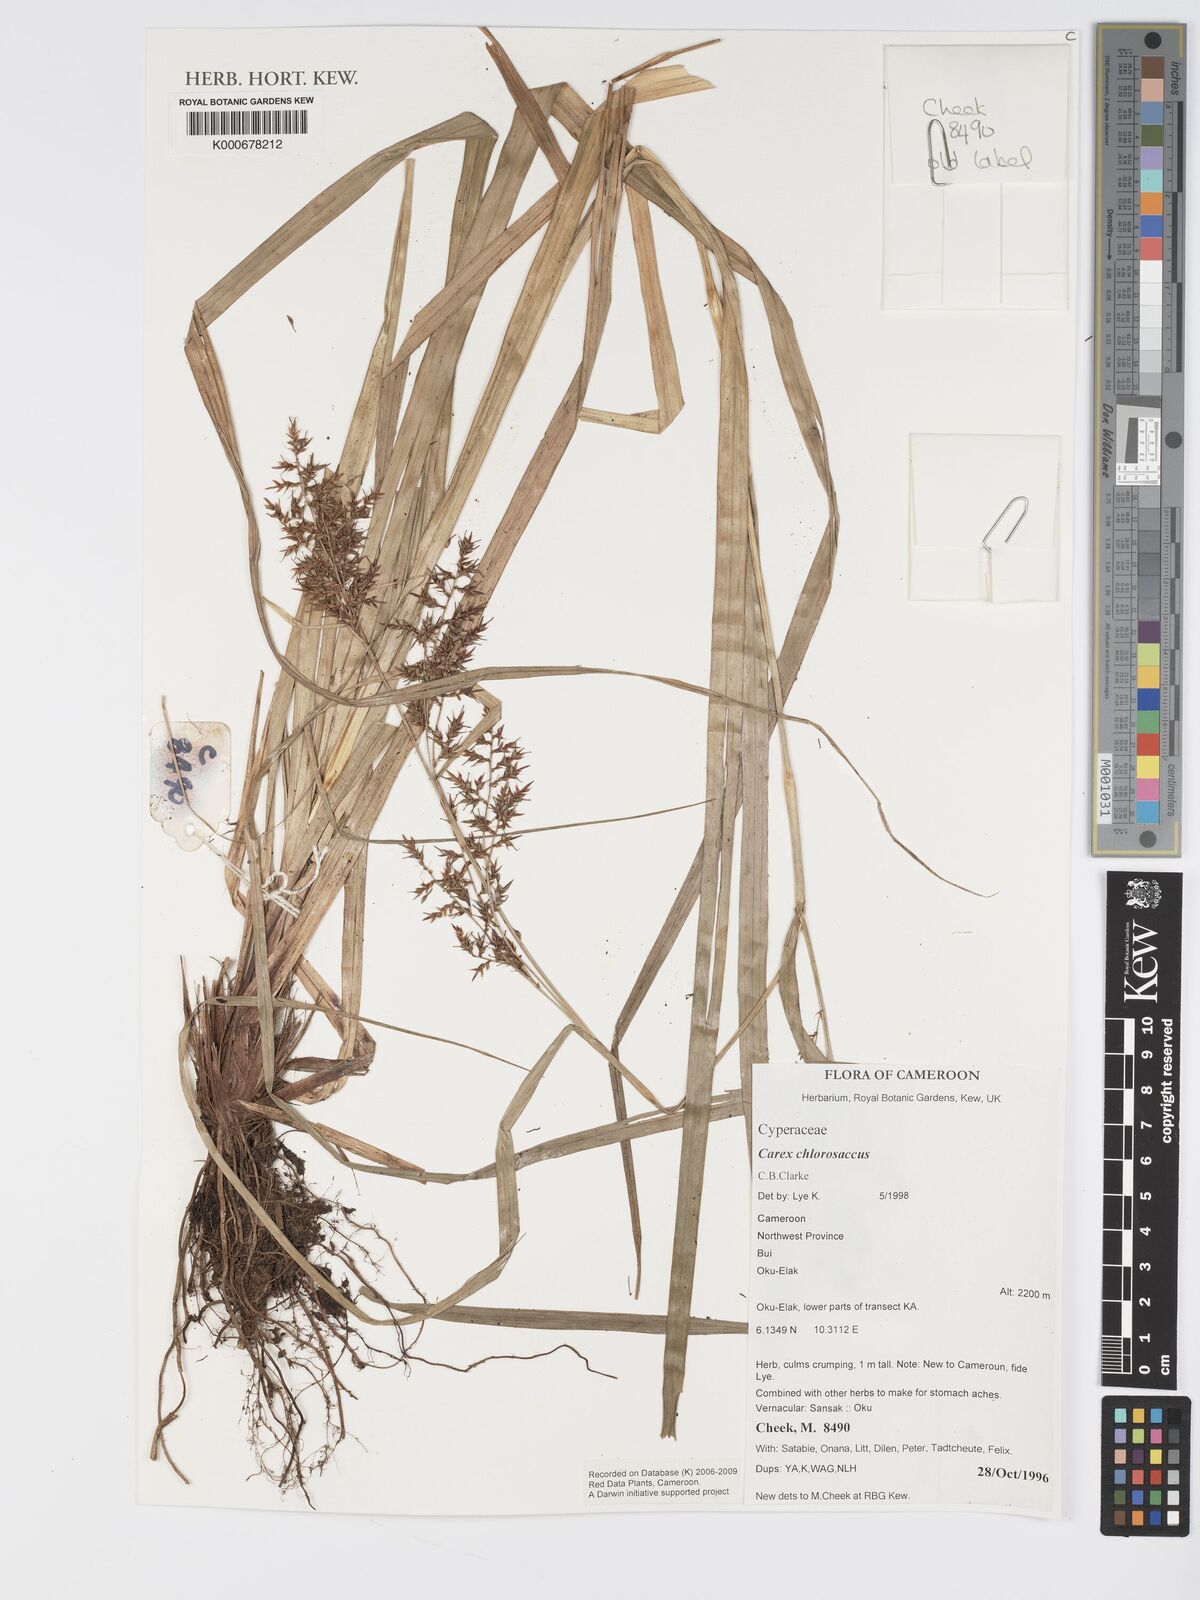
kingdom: Plantae
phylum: Tracheophyta
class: Liliopsida
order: Poales
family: Cyperaceae
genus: Carex
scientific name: Carex chlorosaccus
